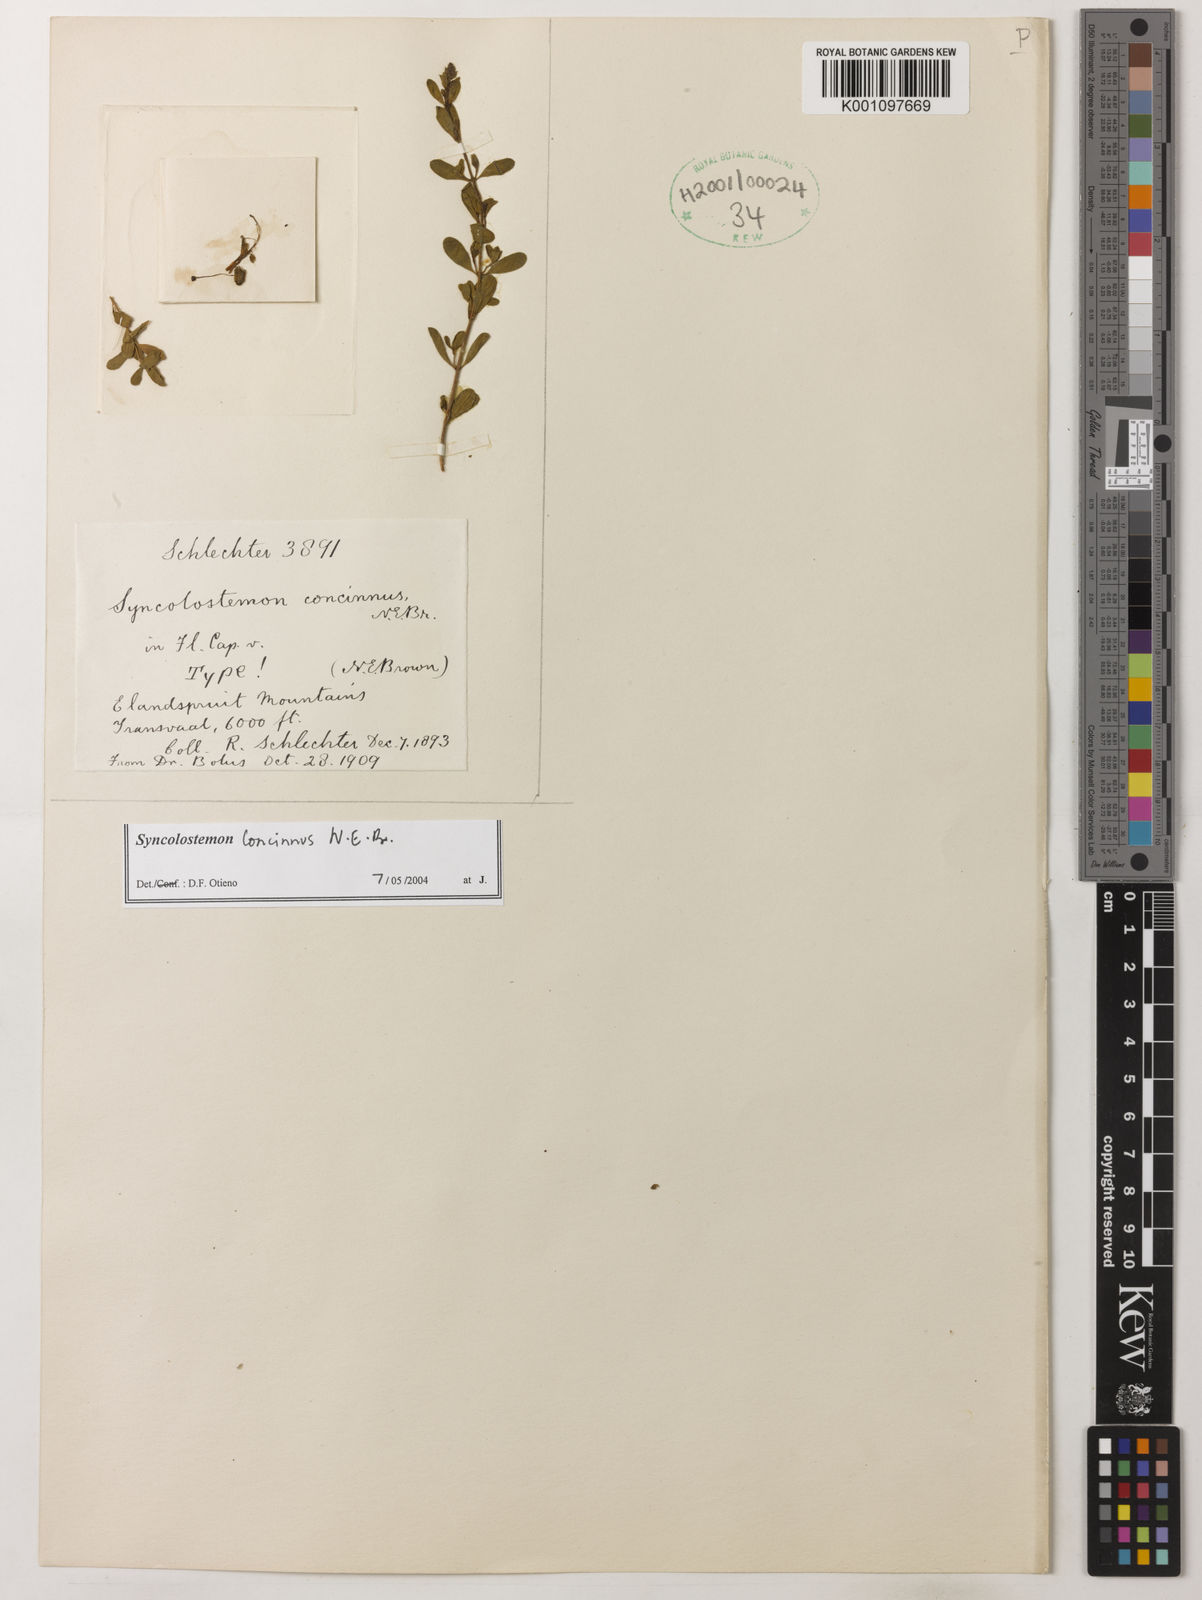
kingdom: Plantae
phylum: Tracheophyta
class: Magnoliopsida
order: Lamiales
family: Lamiaceae
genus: Syncolostemon
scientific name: Syncolostemon concinnus
